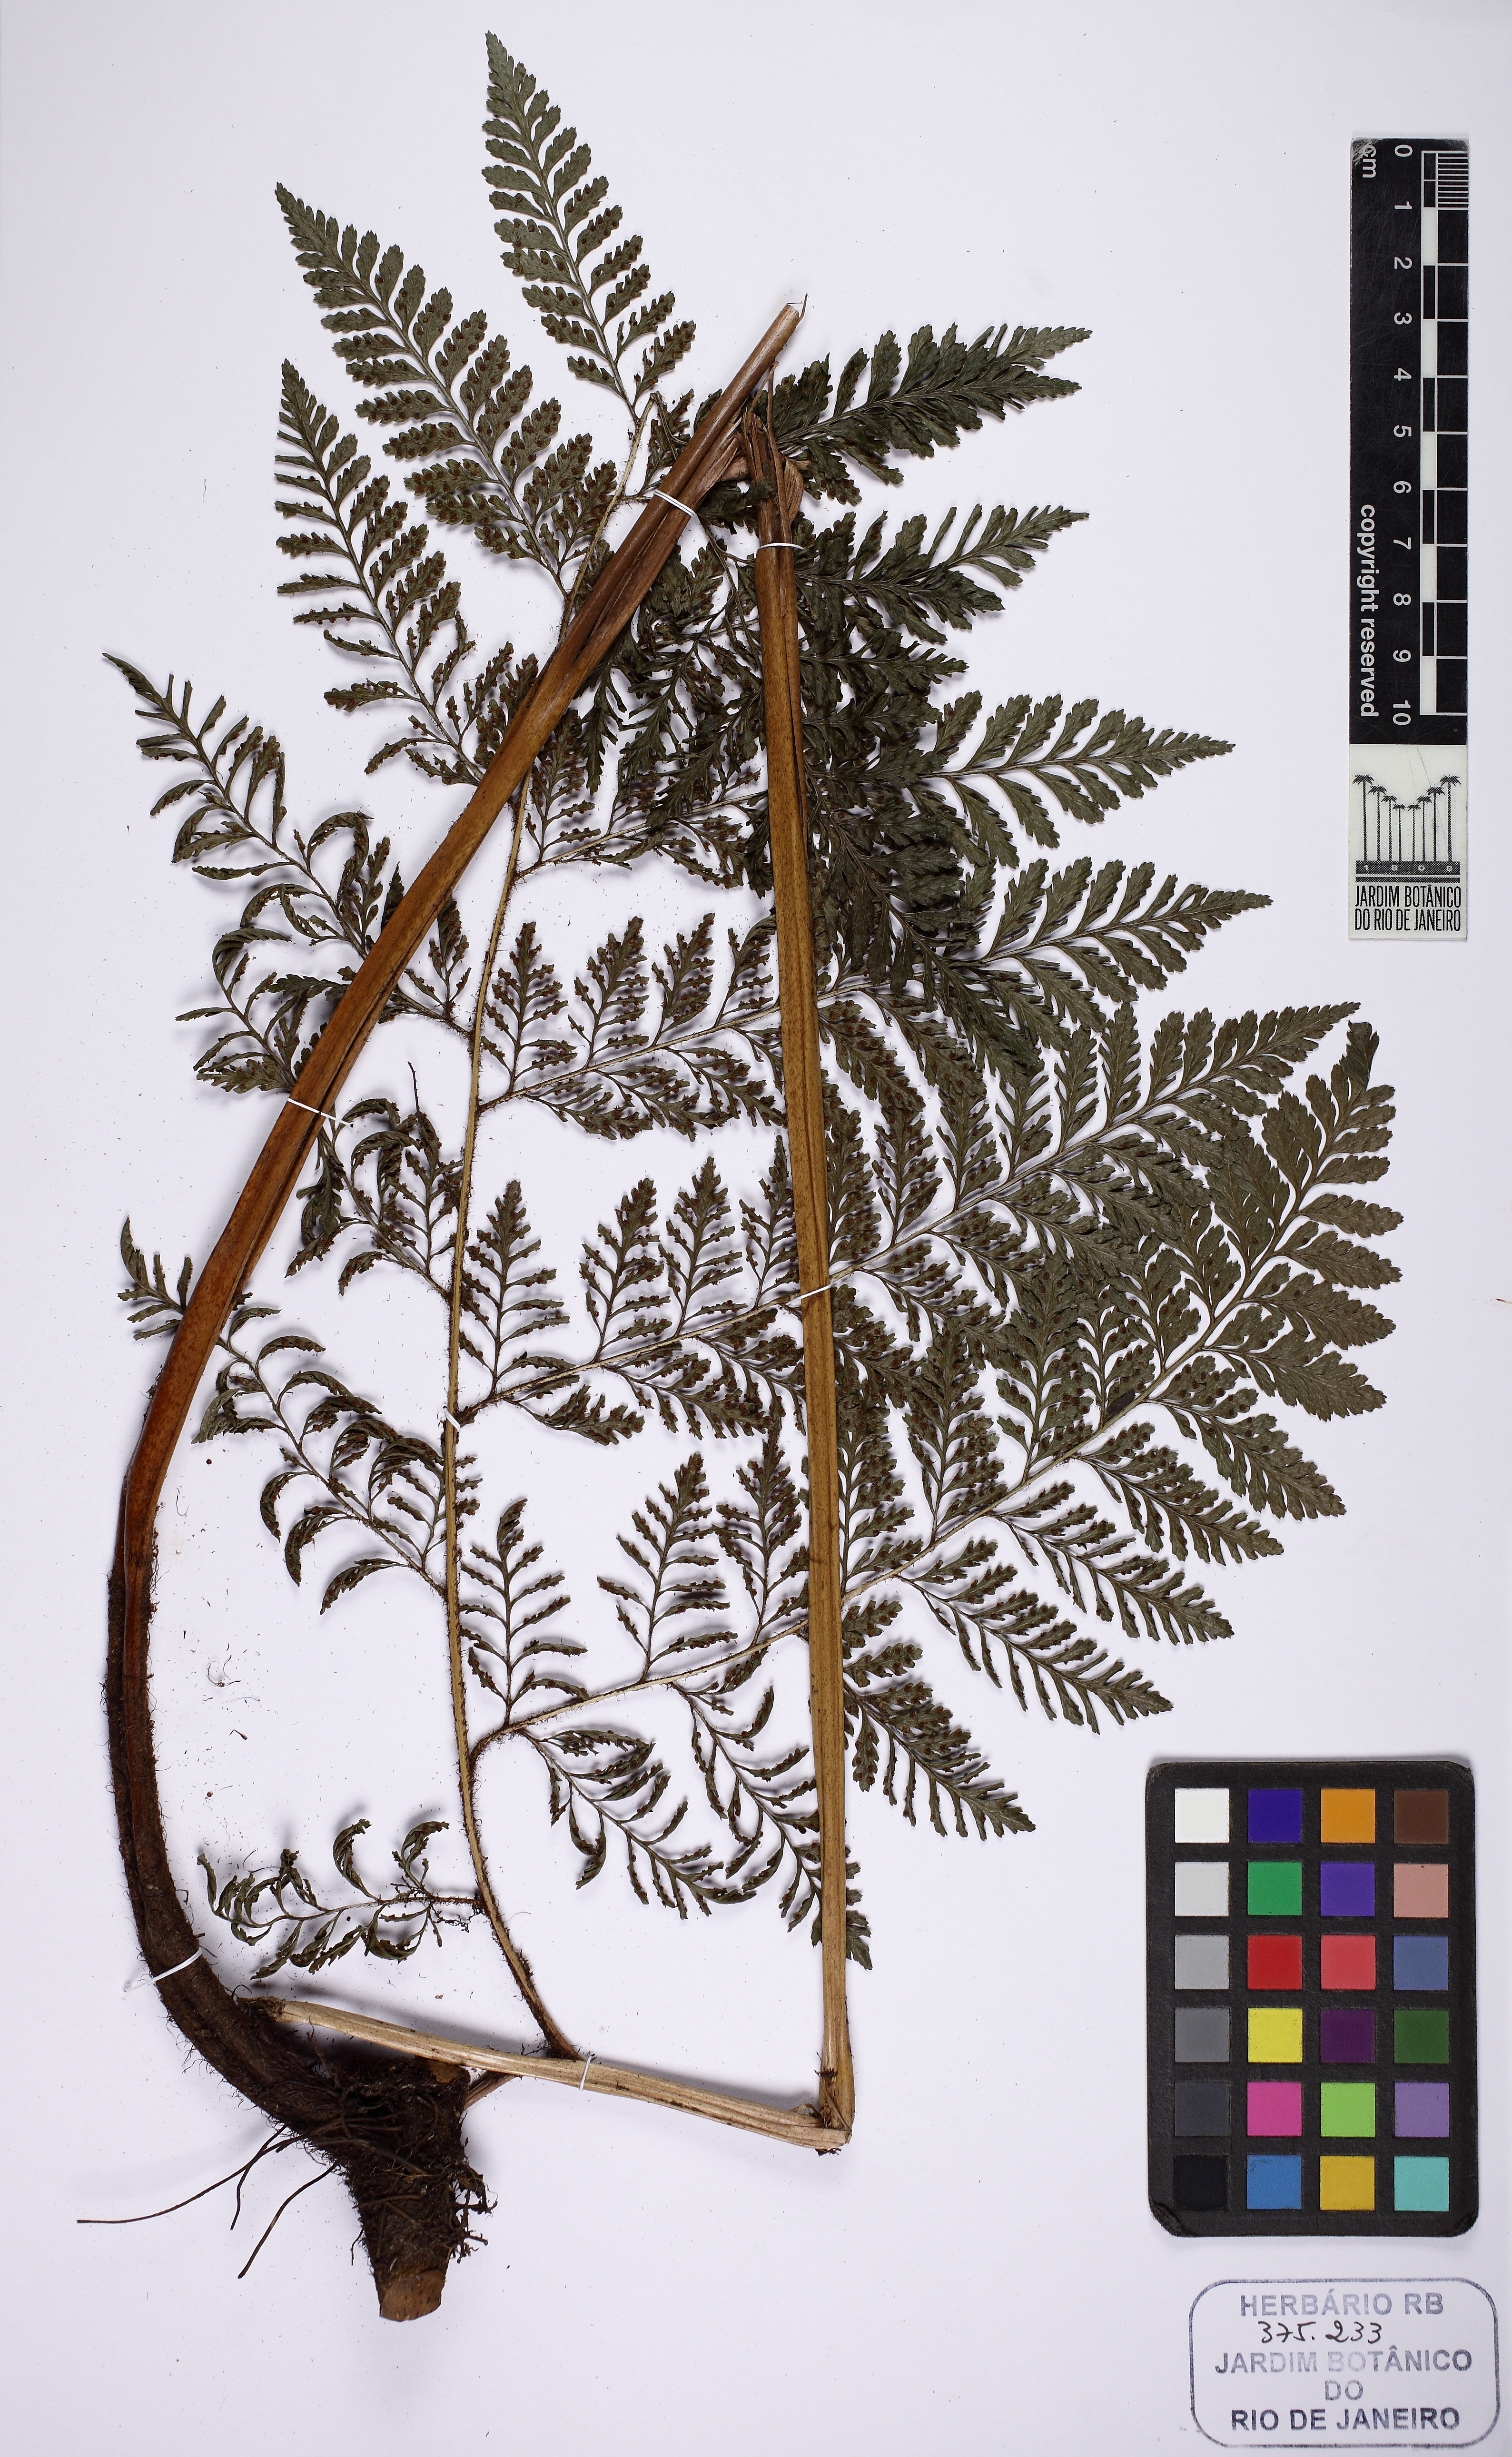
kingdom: Plantae
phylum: Tracheophyta
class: Polypodiopsida
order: Polypodiales
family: Dryopteridaceae
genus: Lastreopsis
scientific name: Lastreopsis amplissima
